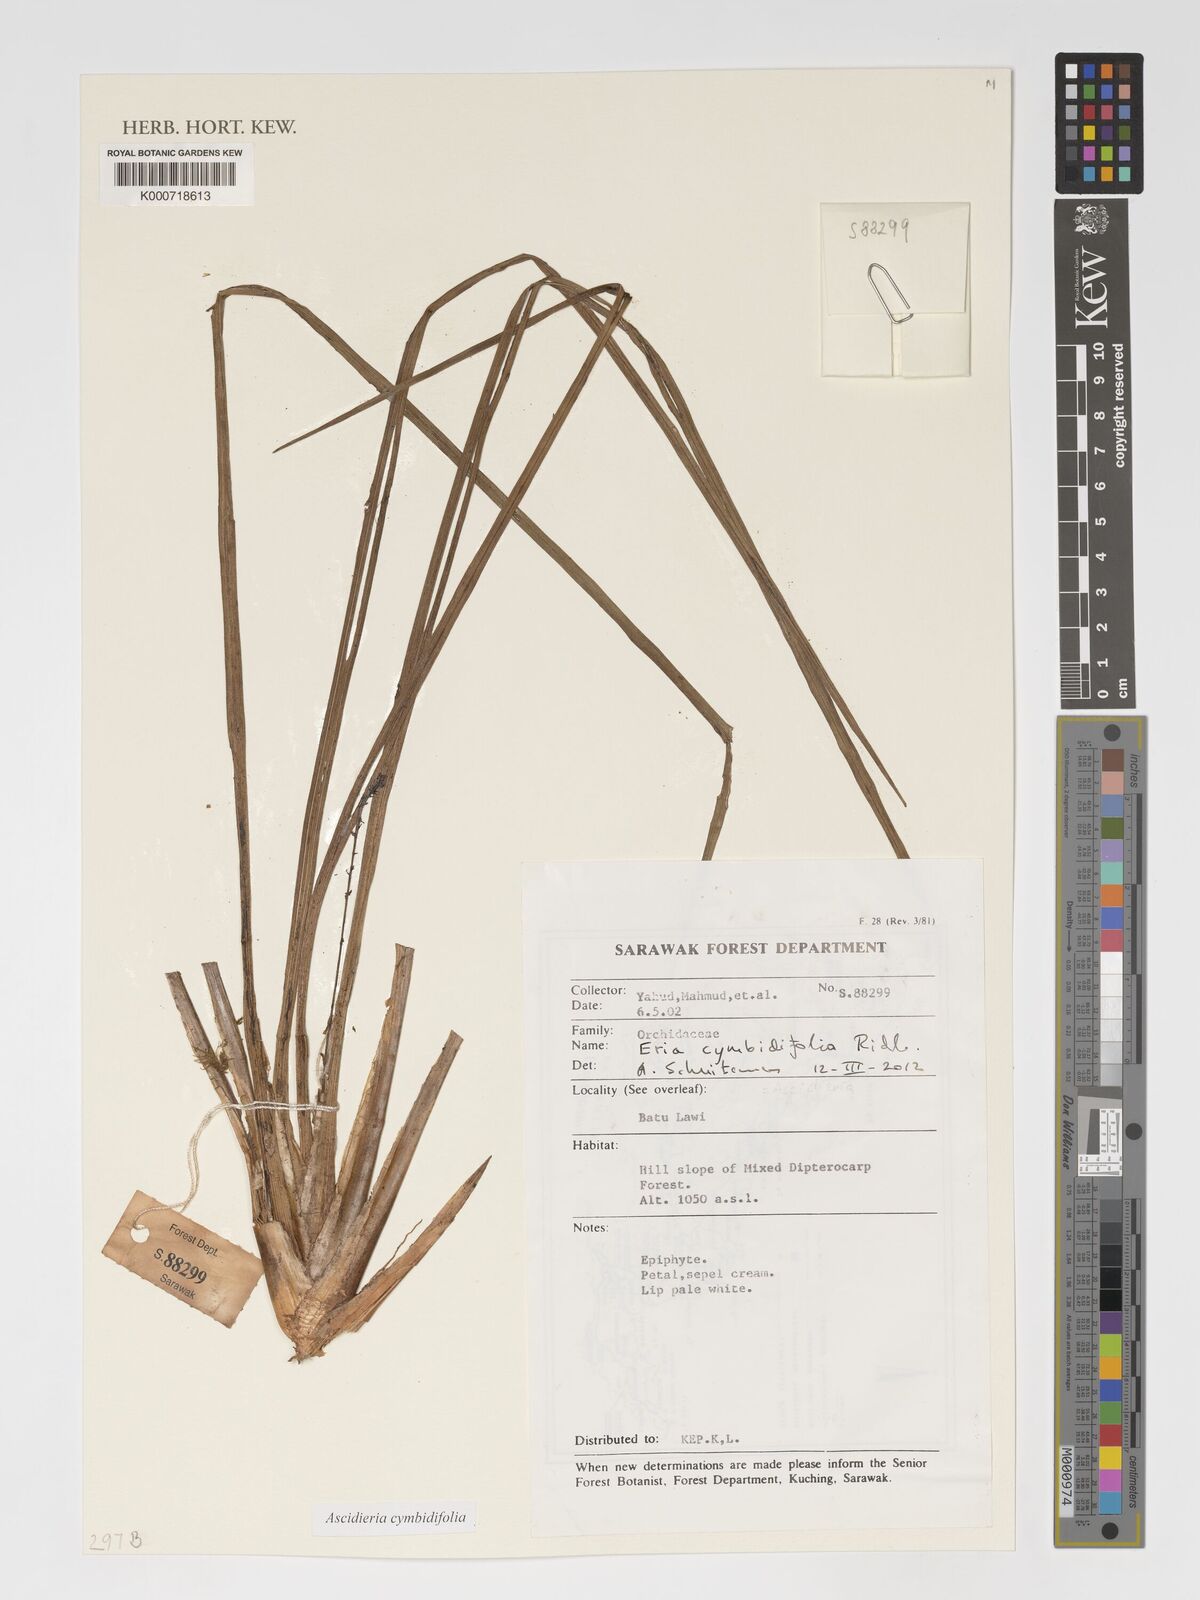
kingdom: Plantae
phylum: Tracheophyta
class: Liliopsida
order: Asparagales
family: Orchidaceae
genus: Cymboglossum
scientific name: Cymboglossum cymbidiifolium
